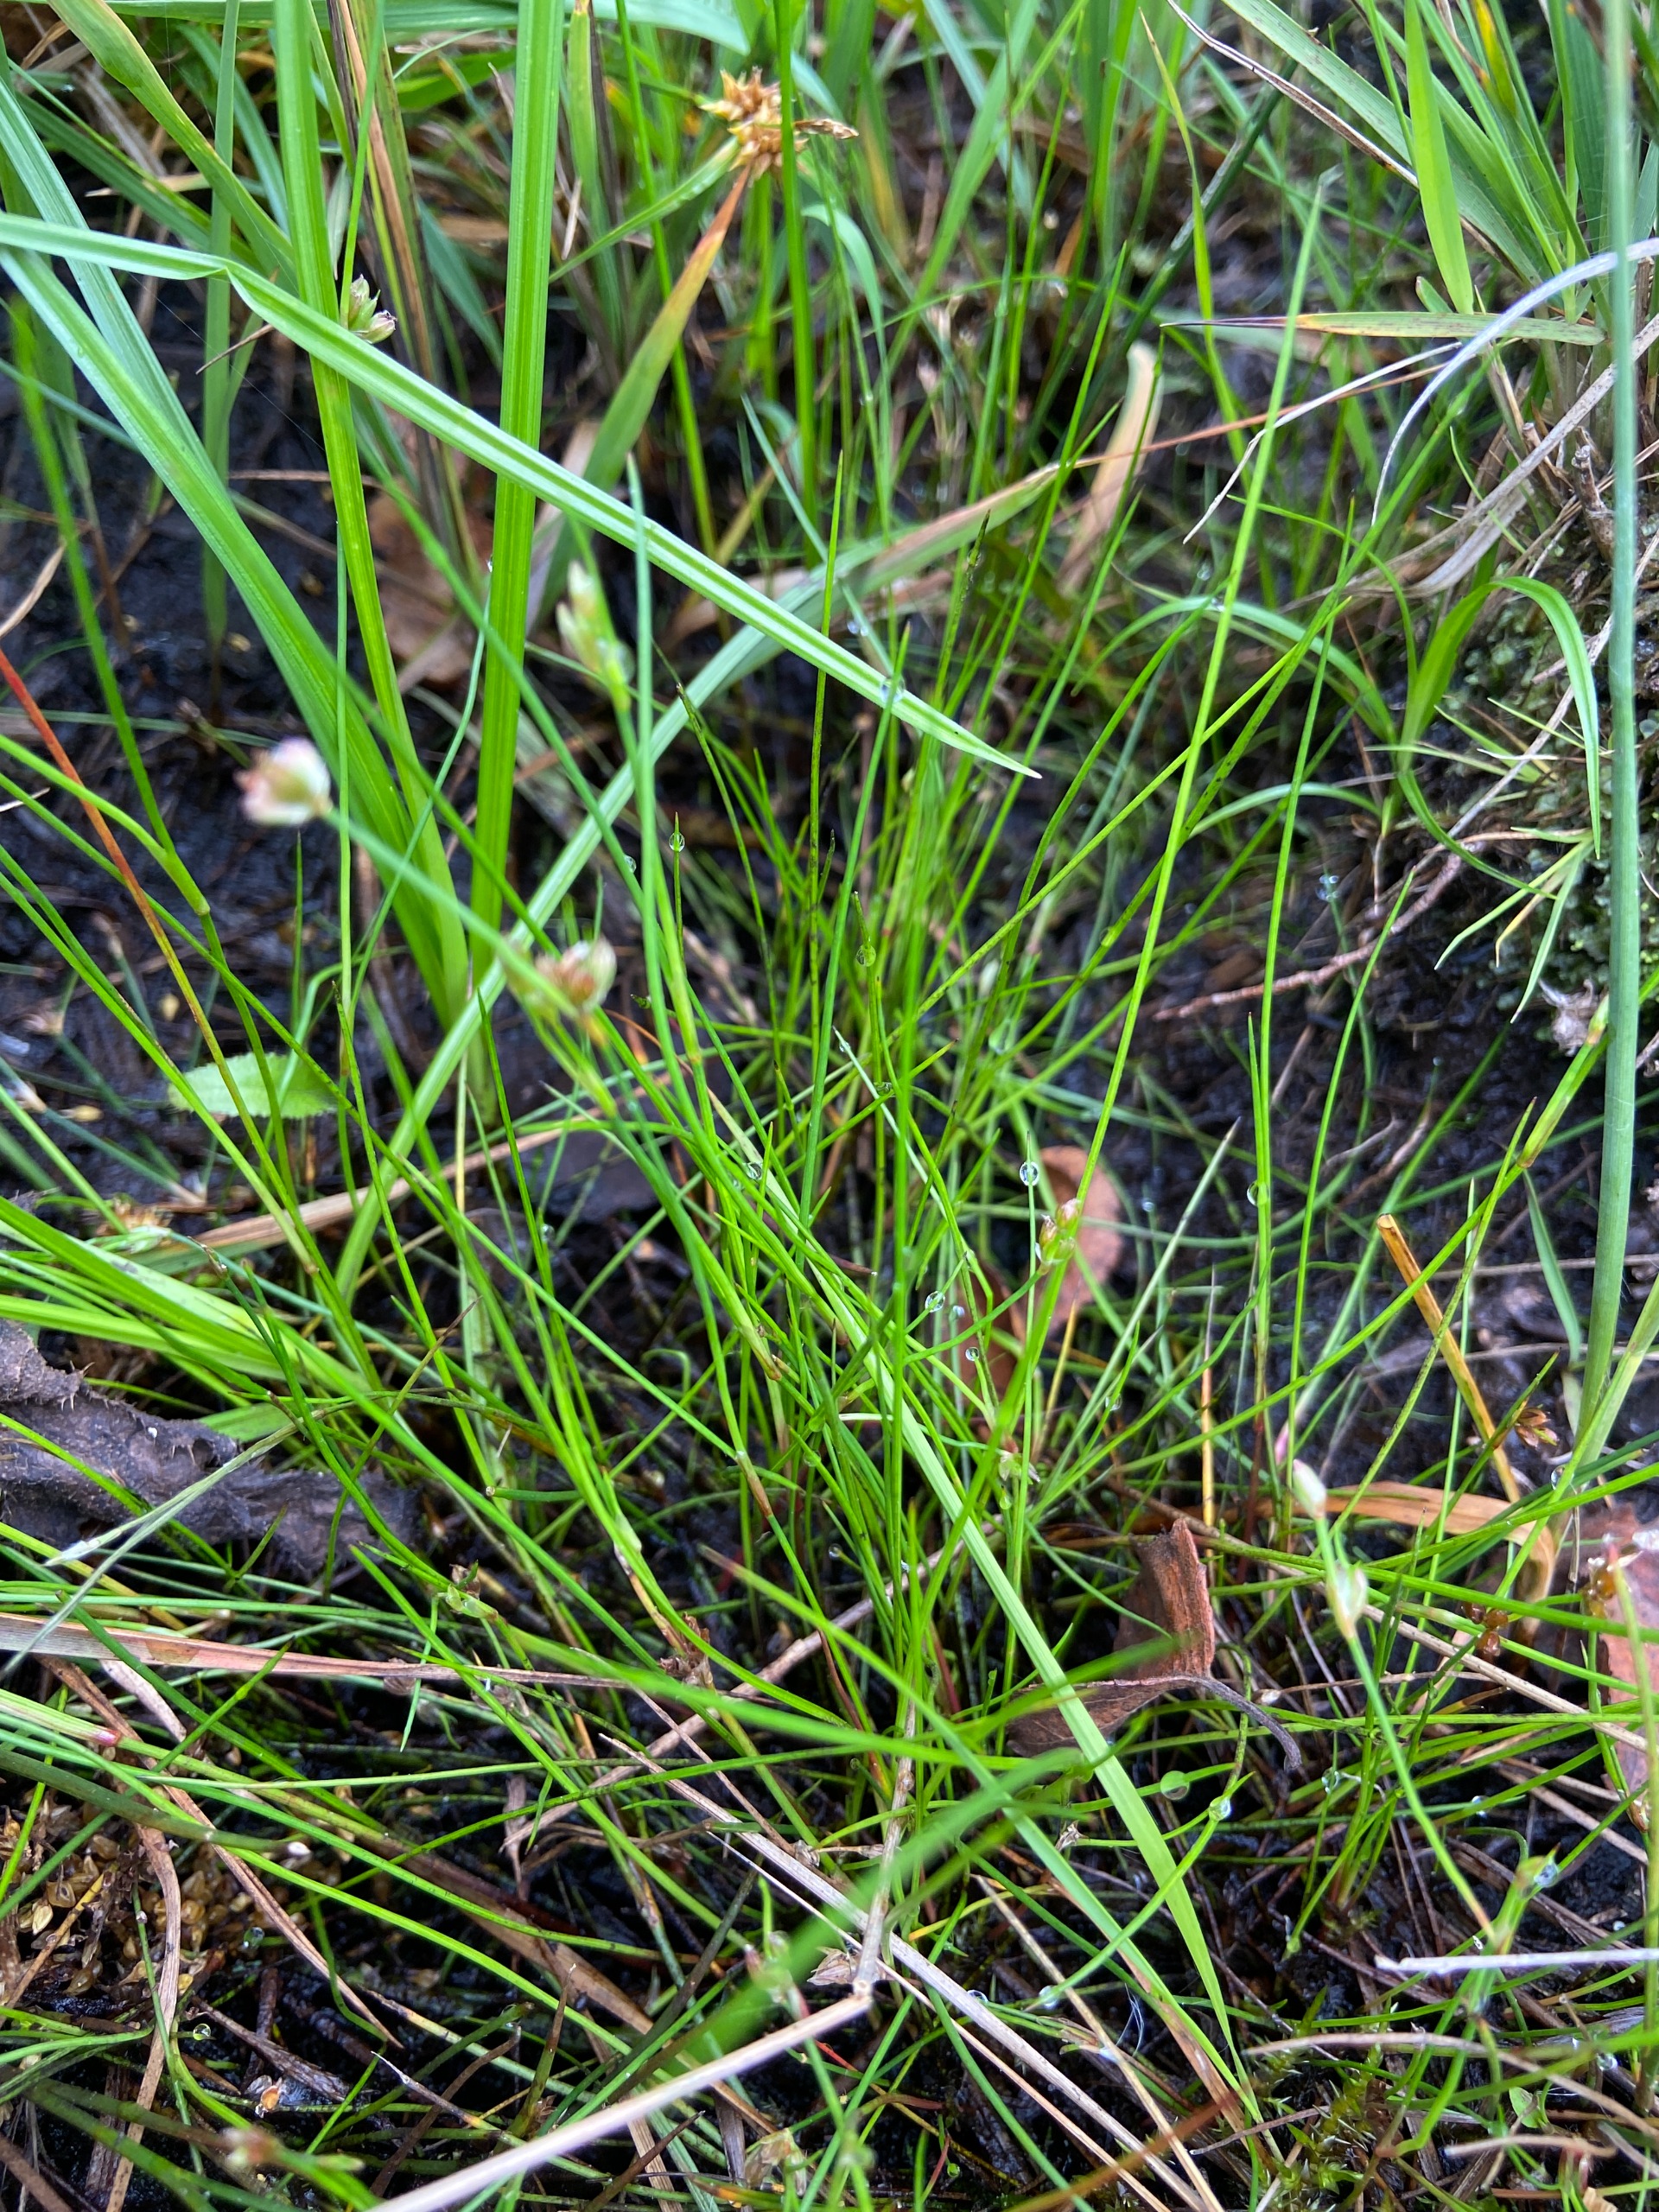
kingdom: Plantae
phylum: Tracheophyta
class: Liliopsida
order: Poales
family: Juncaceae
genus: Juncus
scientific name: Juncus bulbosus
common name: Liden siv
